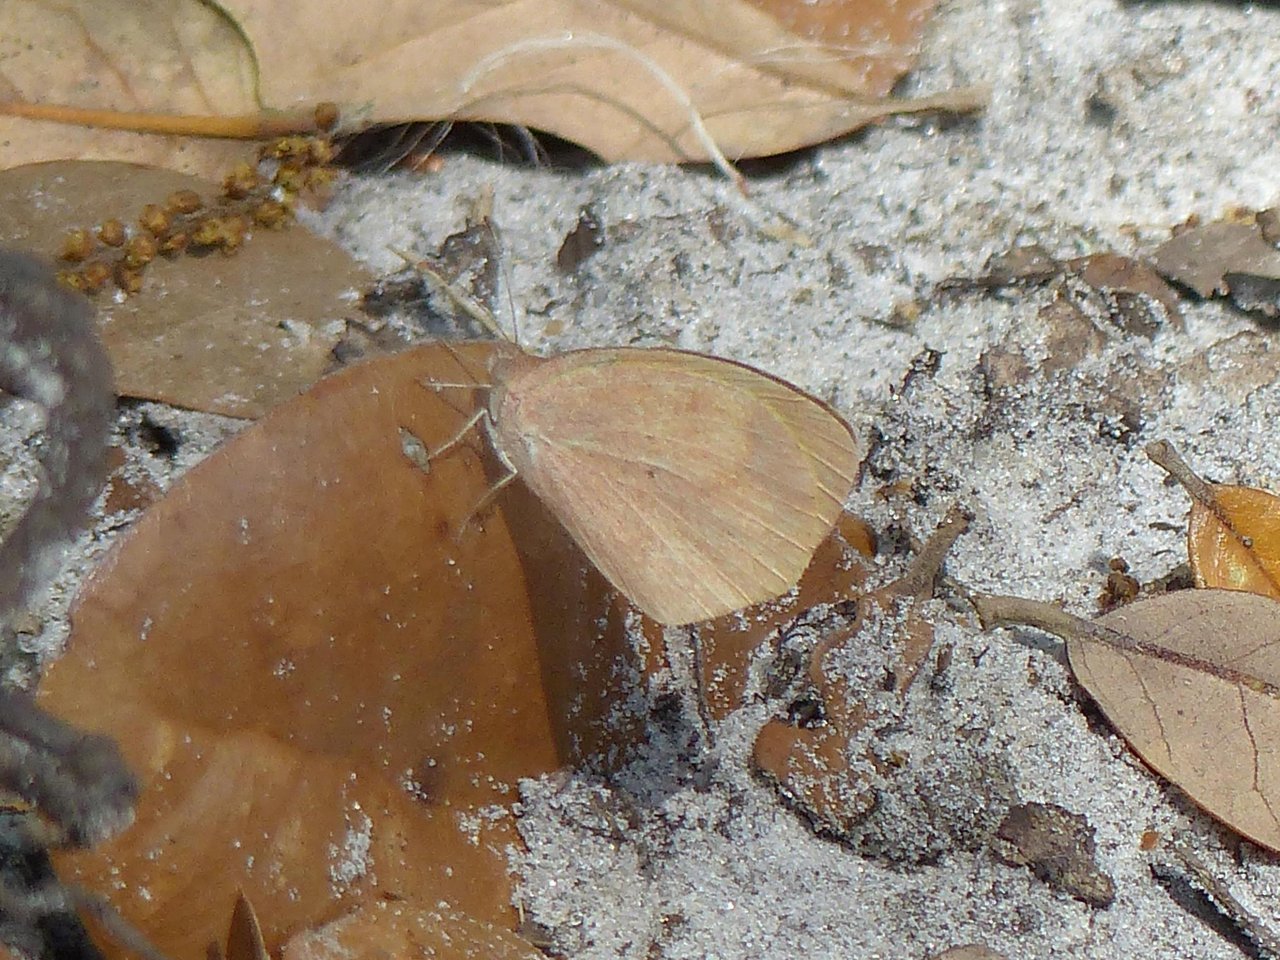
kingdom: Animalia
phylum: Arthropoda
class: Insecta
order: Lepidoptera
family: Pieridae
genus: Abaeis
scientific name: Abaeis nicippe
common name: Sleepy Orange
